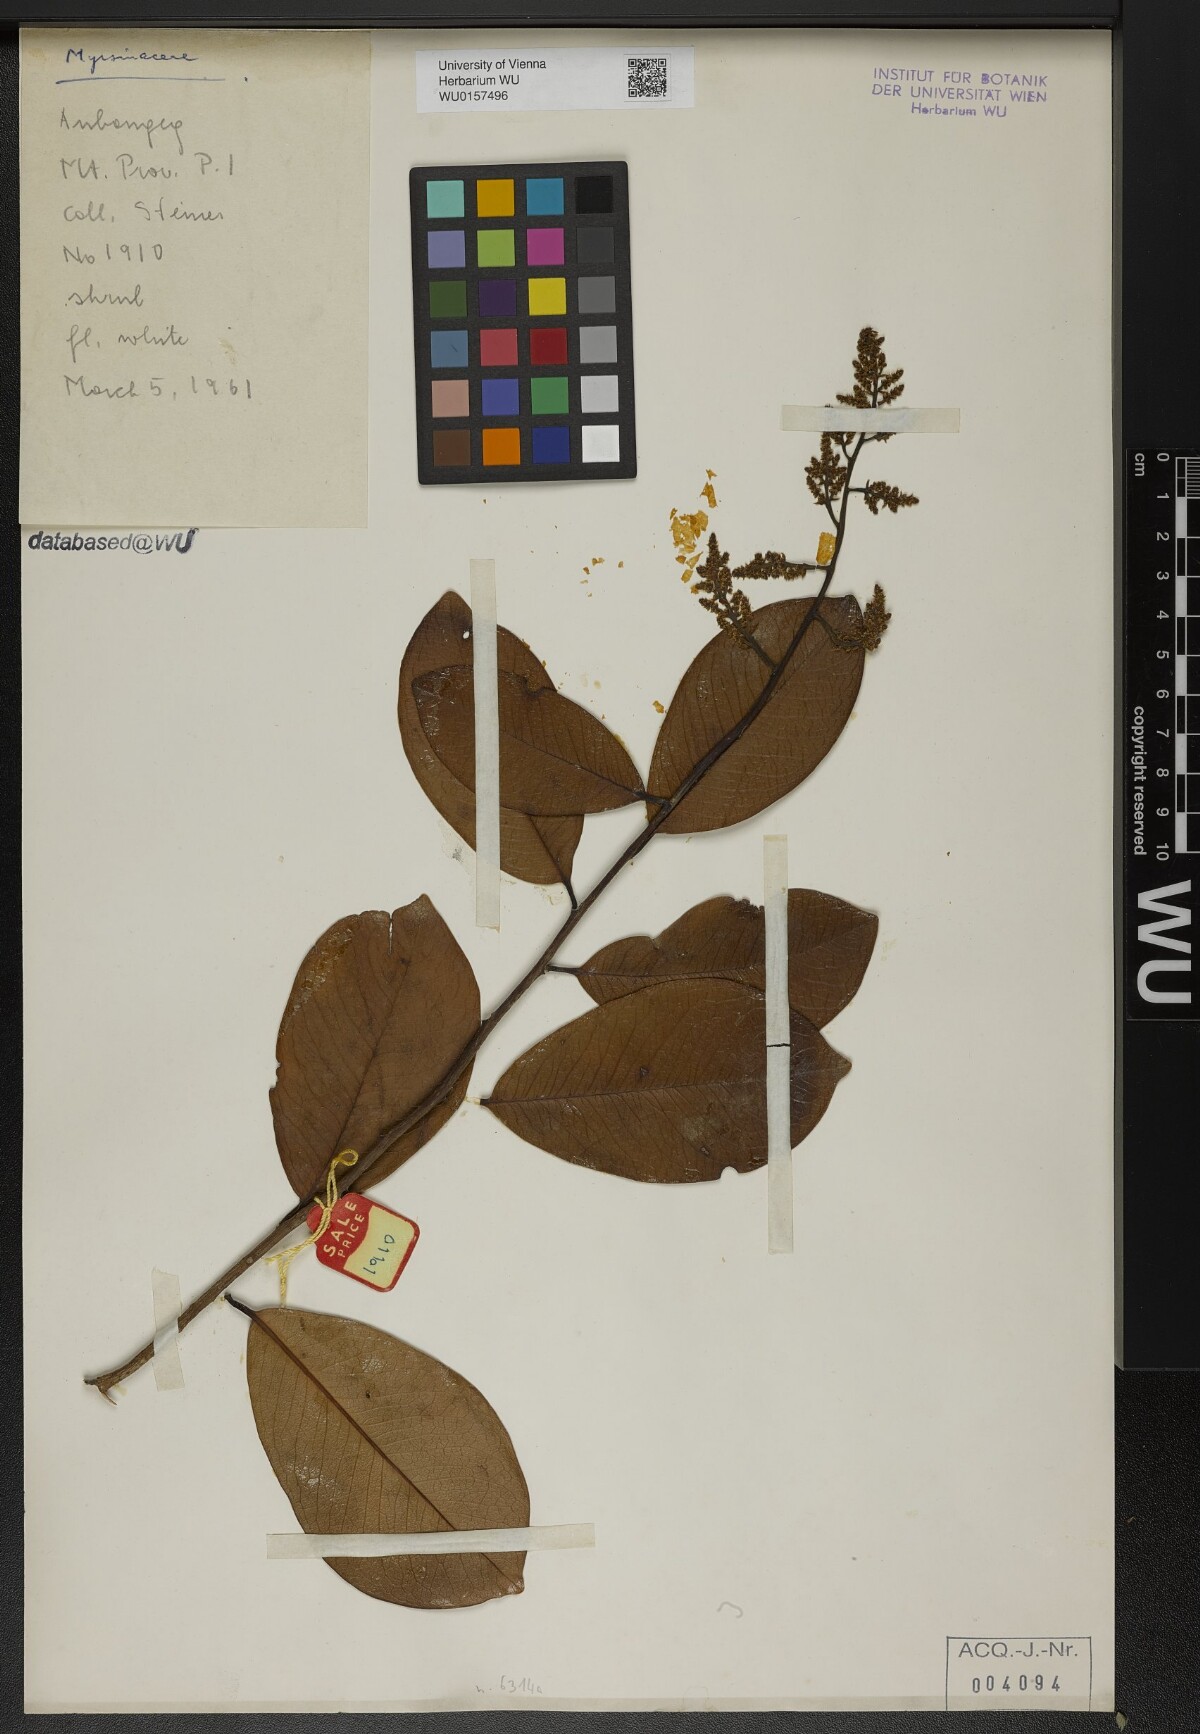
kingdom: Plantae
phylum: Tracheophyta
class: Magnoliopsida
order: Ericales
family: Primulaceae
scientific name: Primulaceae
